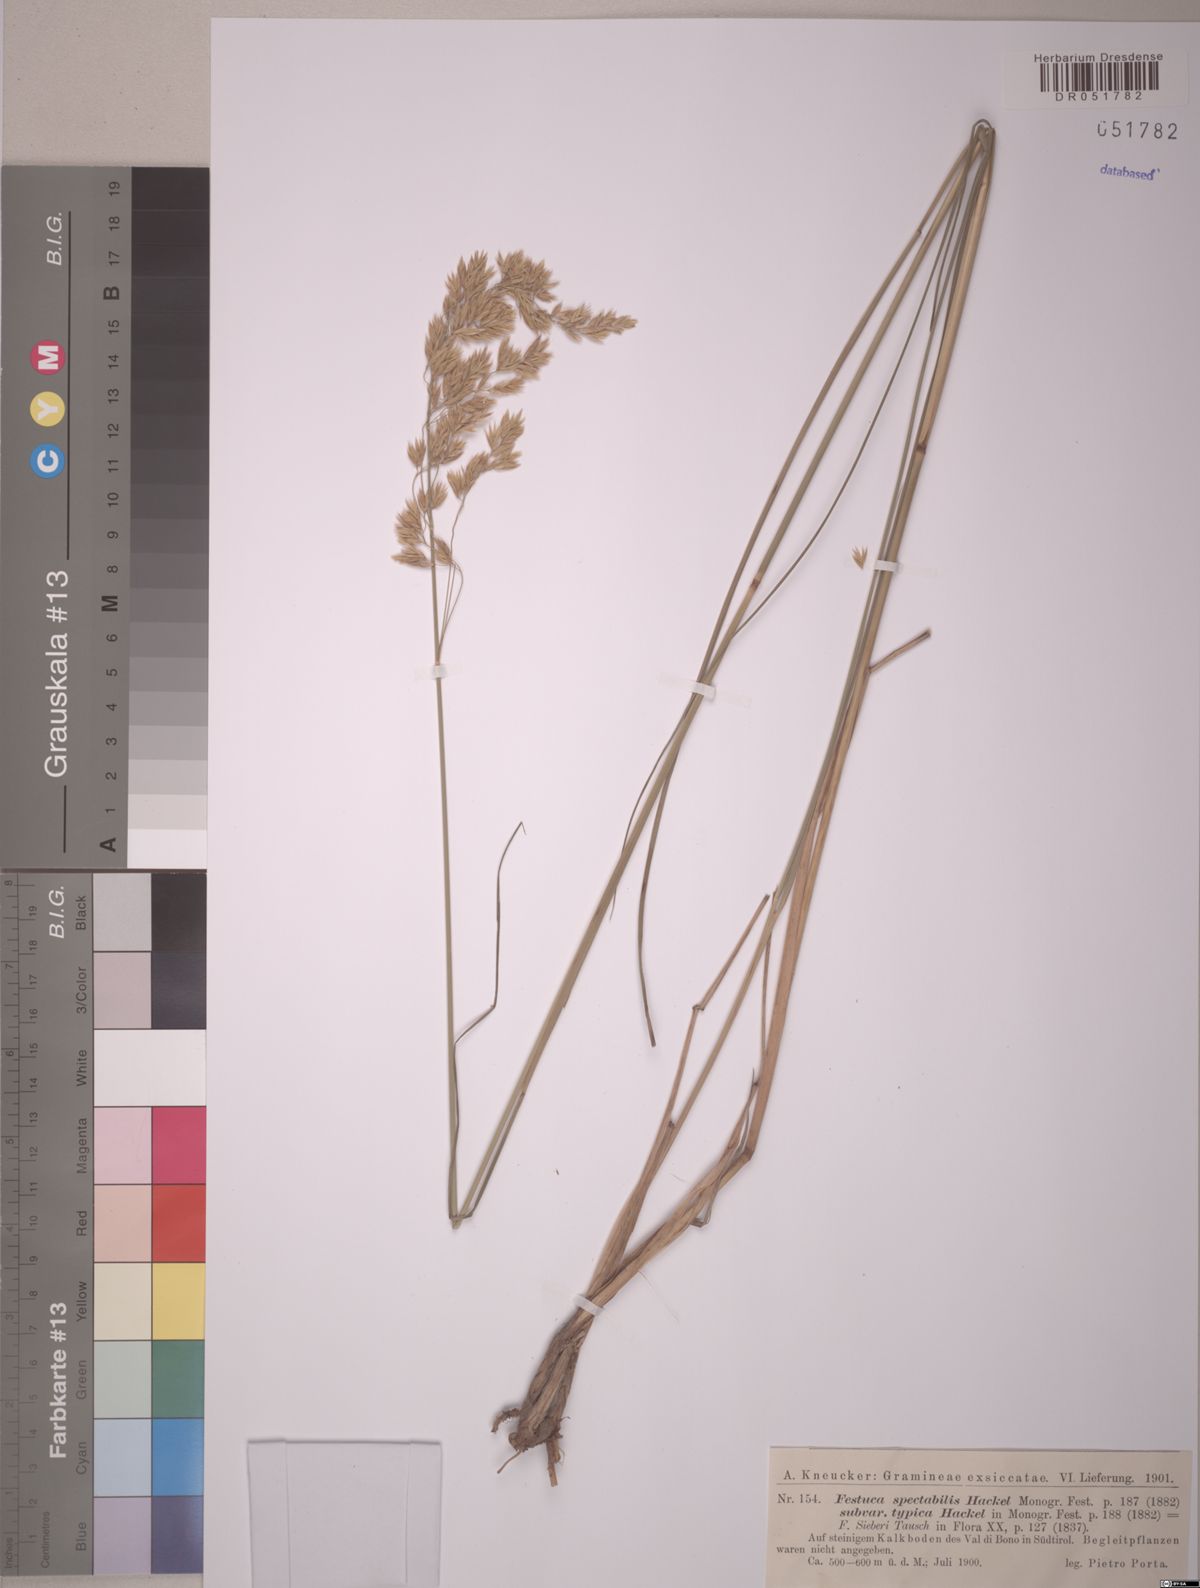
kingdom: Plantae
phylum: Tracheophyta
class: Liliopsida
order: Poales
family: Poaceae
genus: Festuca
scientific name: Festuca spectabilis
